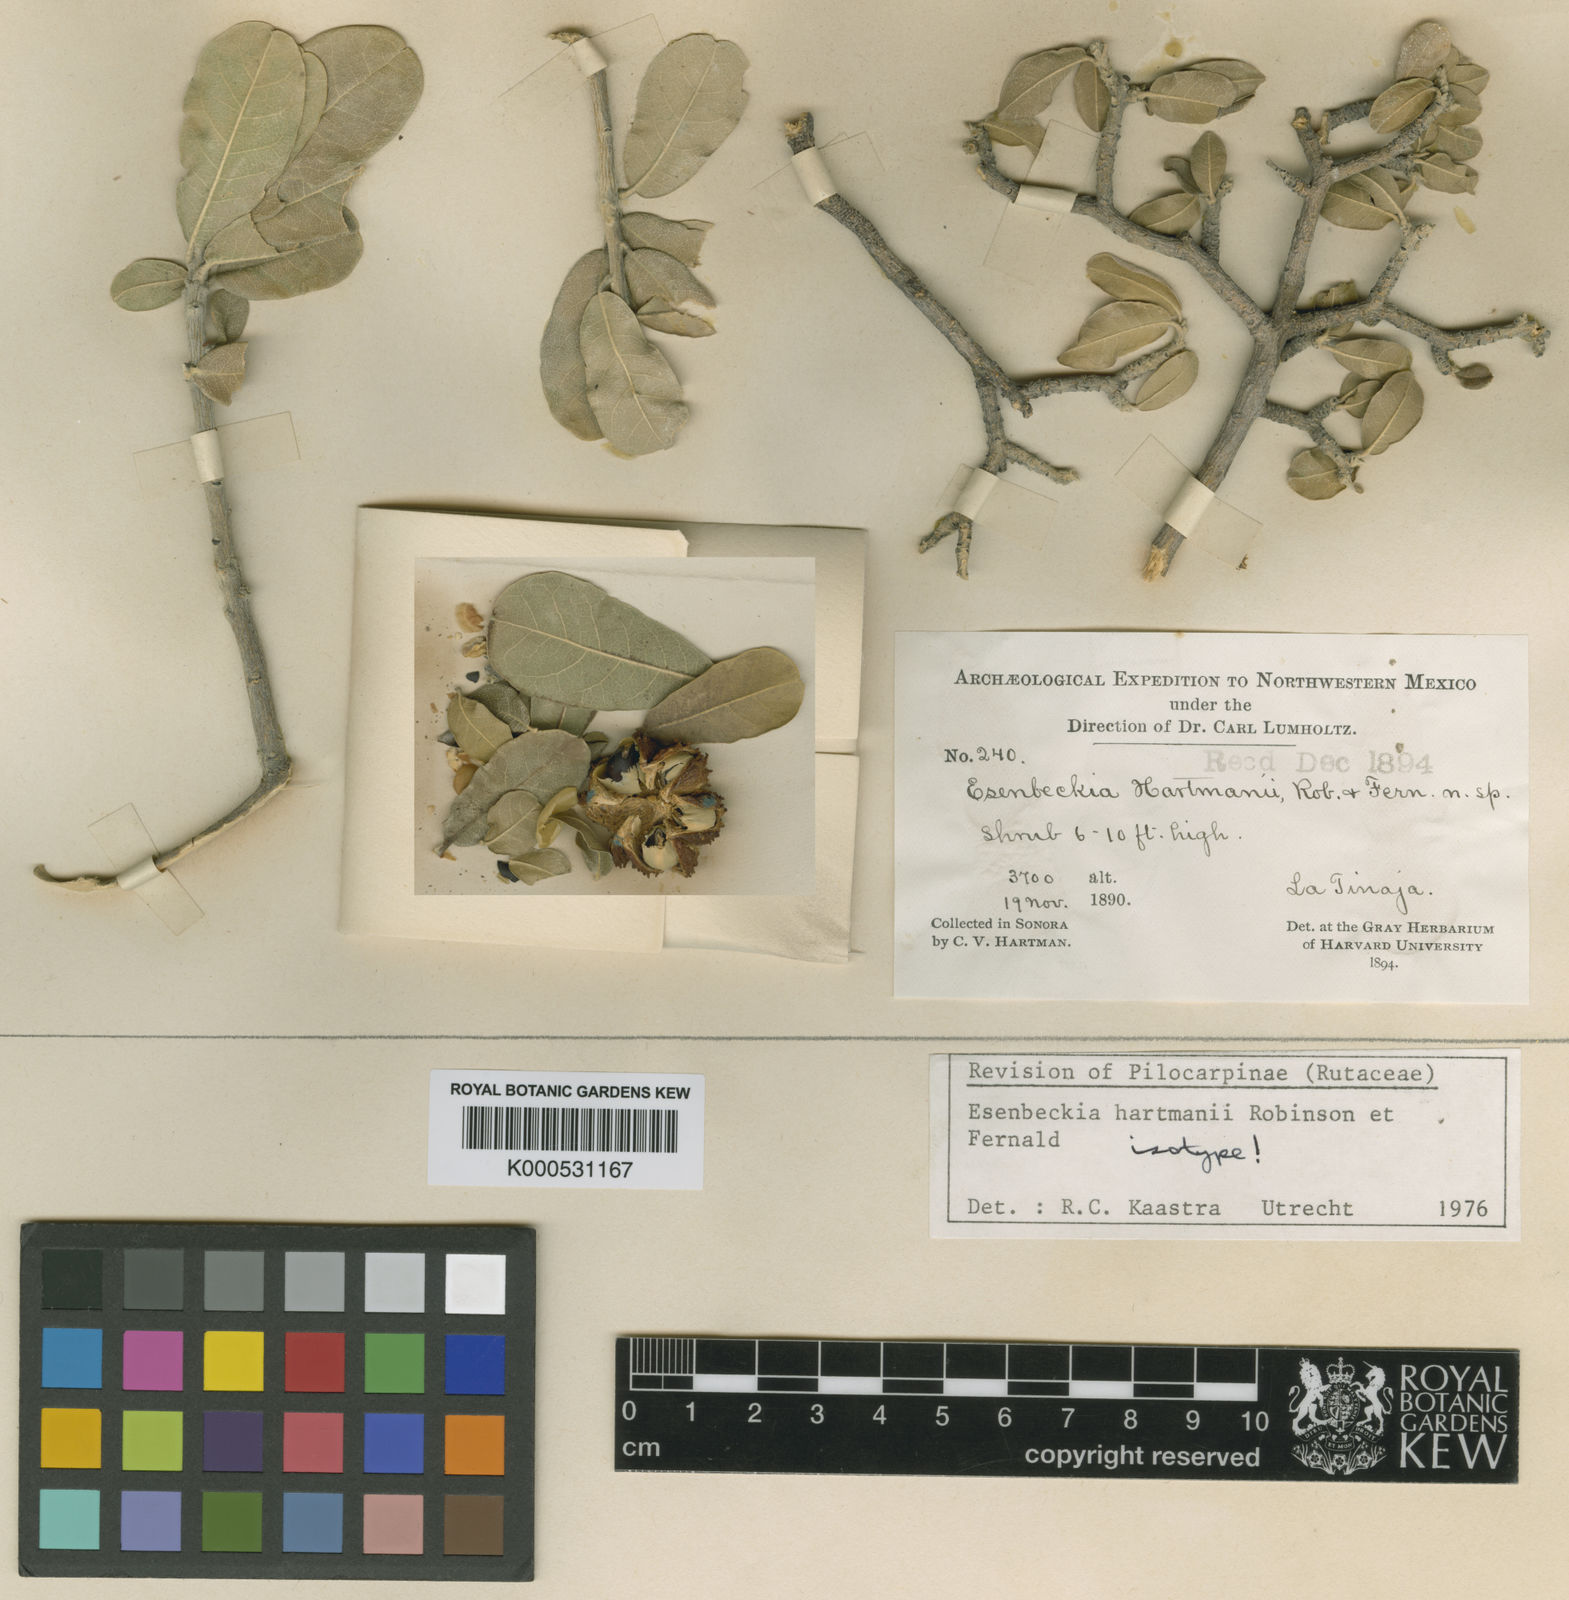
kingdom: Plantae
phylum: Tracheophyta
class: Magnoliopsida
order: Sapindales
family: Rutaceae
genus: Esenbeckia
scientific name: Esenbeckia hartmanii
